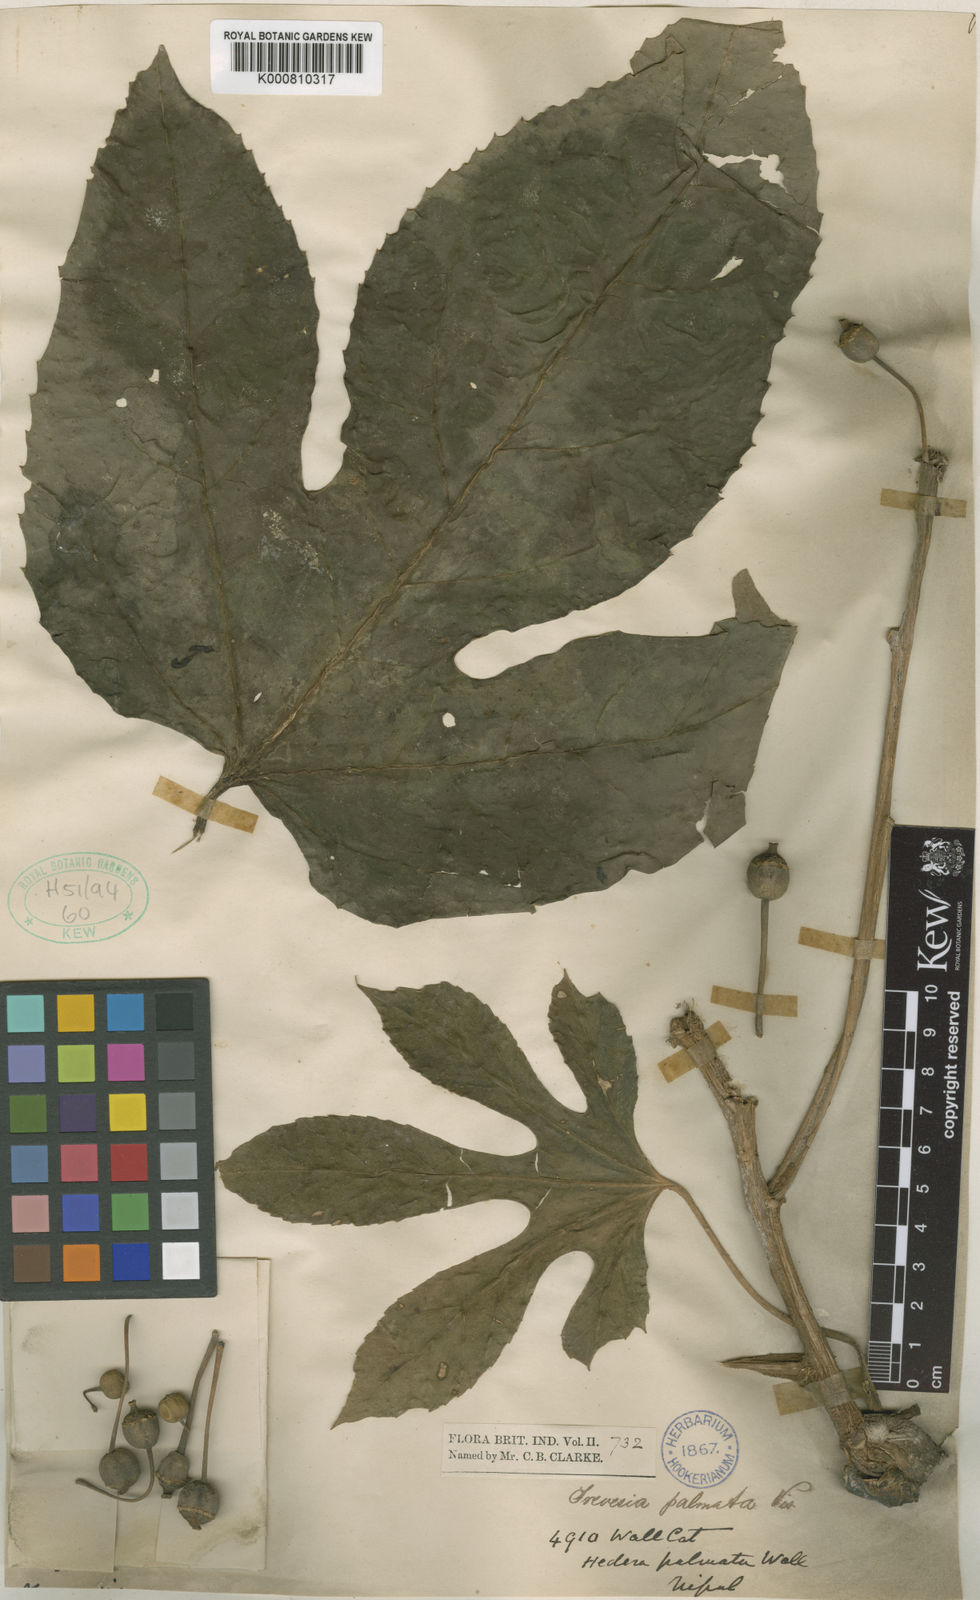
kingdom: Plantae
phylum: Tracheophyta
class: Magnoliopsida
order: Apiales
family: Araliaceae
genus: Trevesia
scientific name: Trevesia palmata
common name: Snowflakeplant
